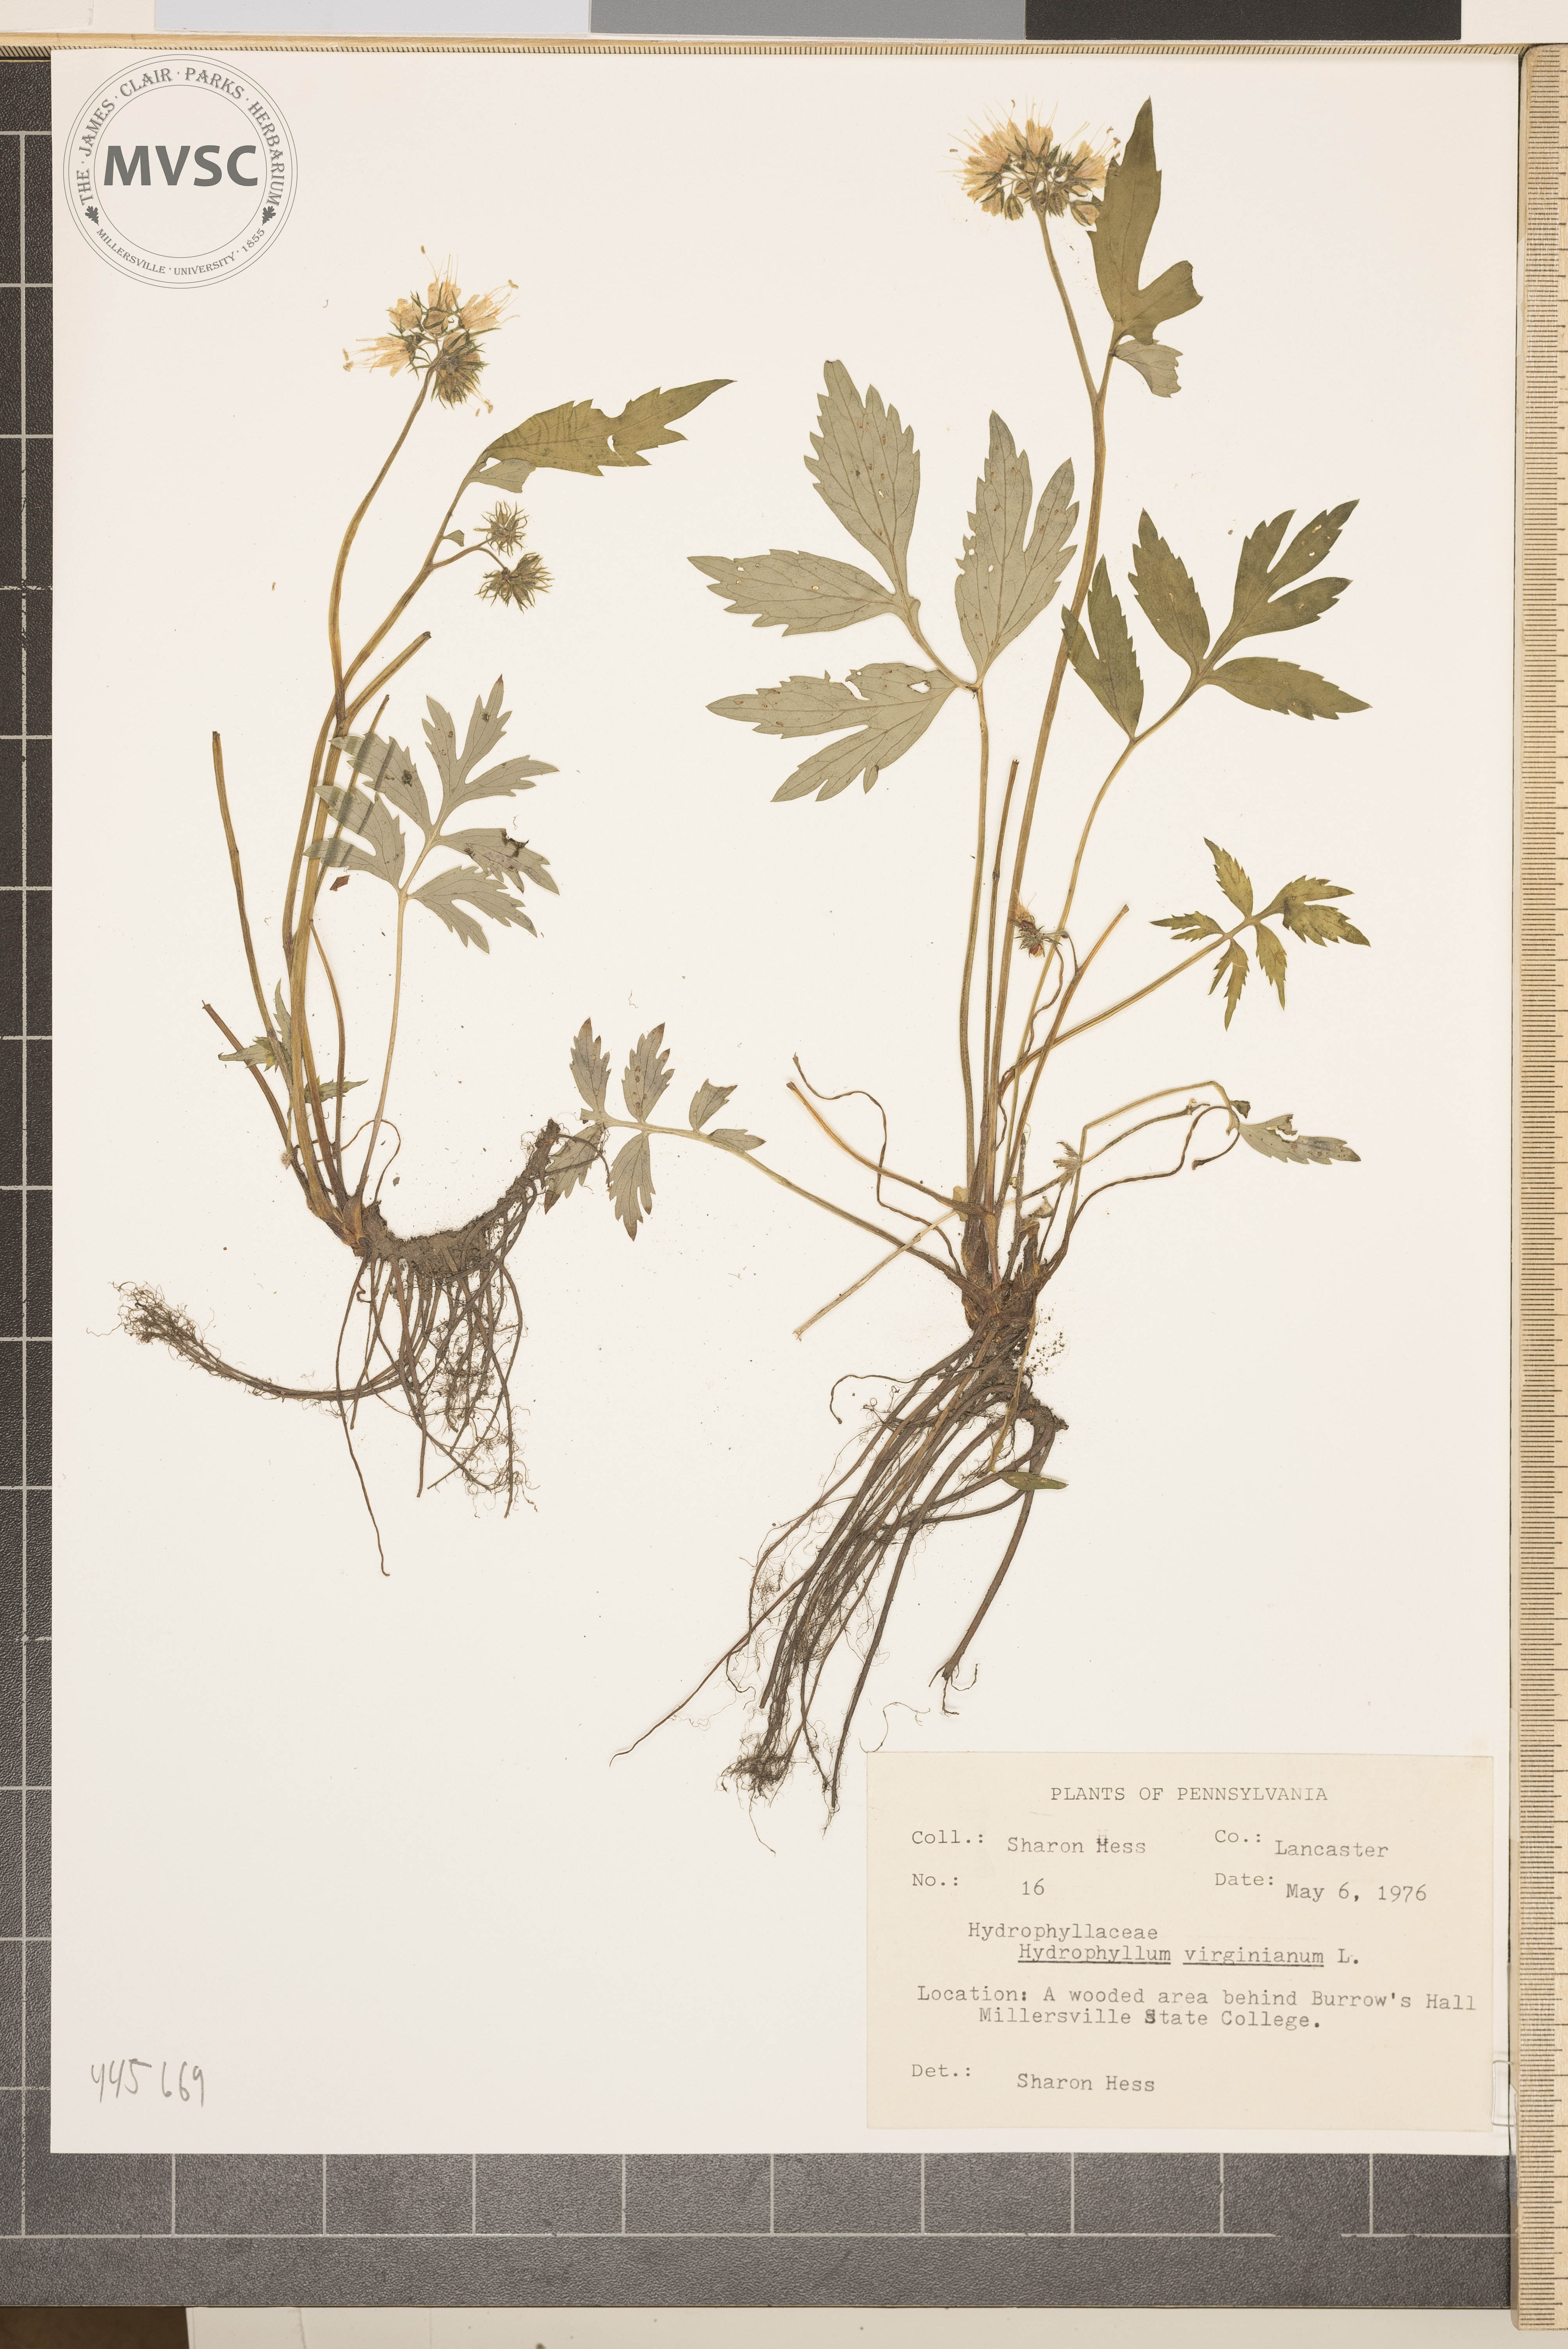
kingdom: Plantae
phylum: Tracheophyta
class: Magnoliopsida
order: Boraginales
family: Hydrophyllaceae
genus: Hydrophyllum
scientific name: Hydrophyllum virginianum
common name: Virginia waterleaf
